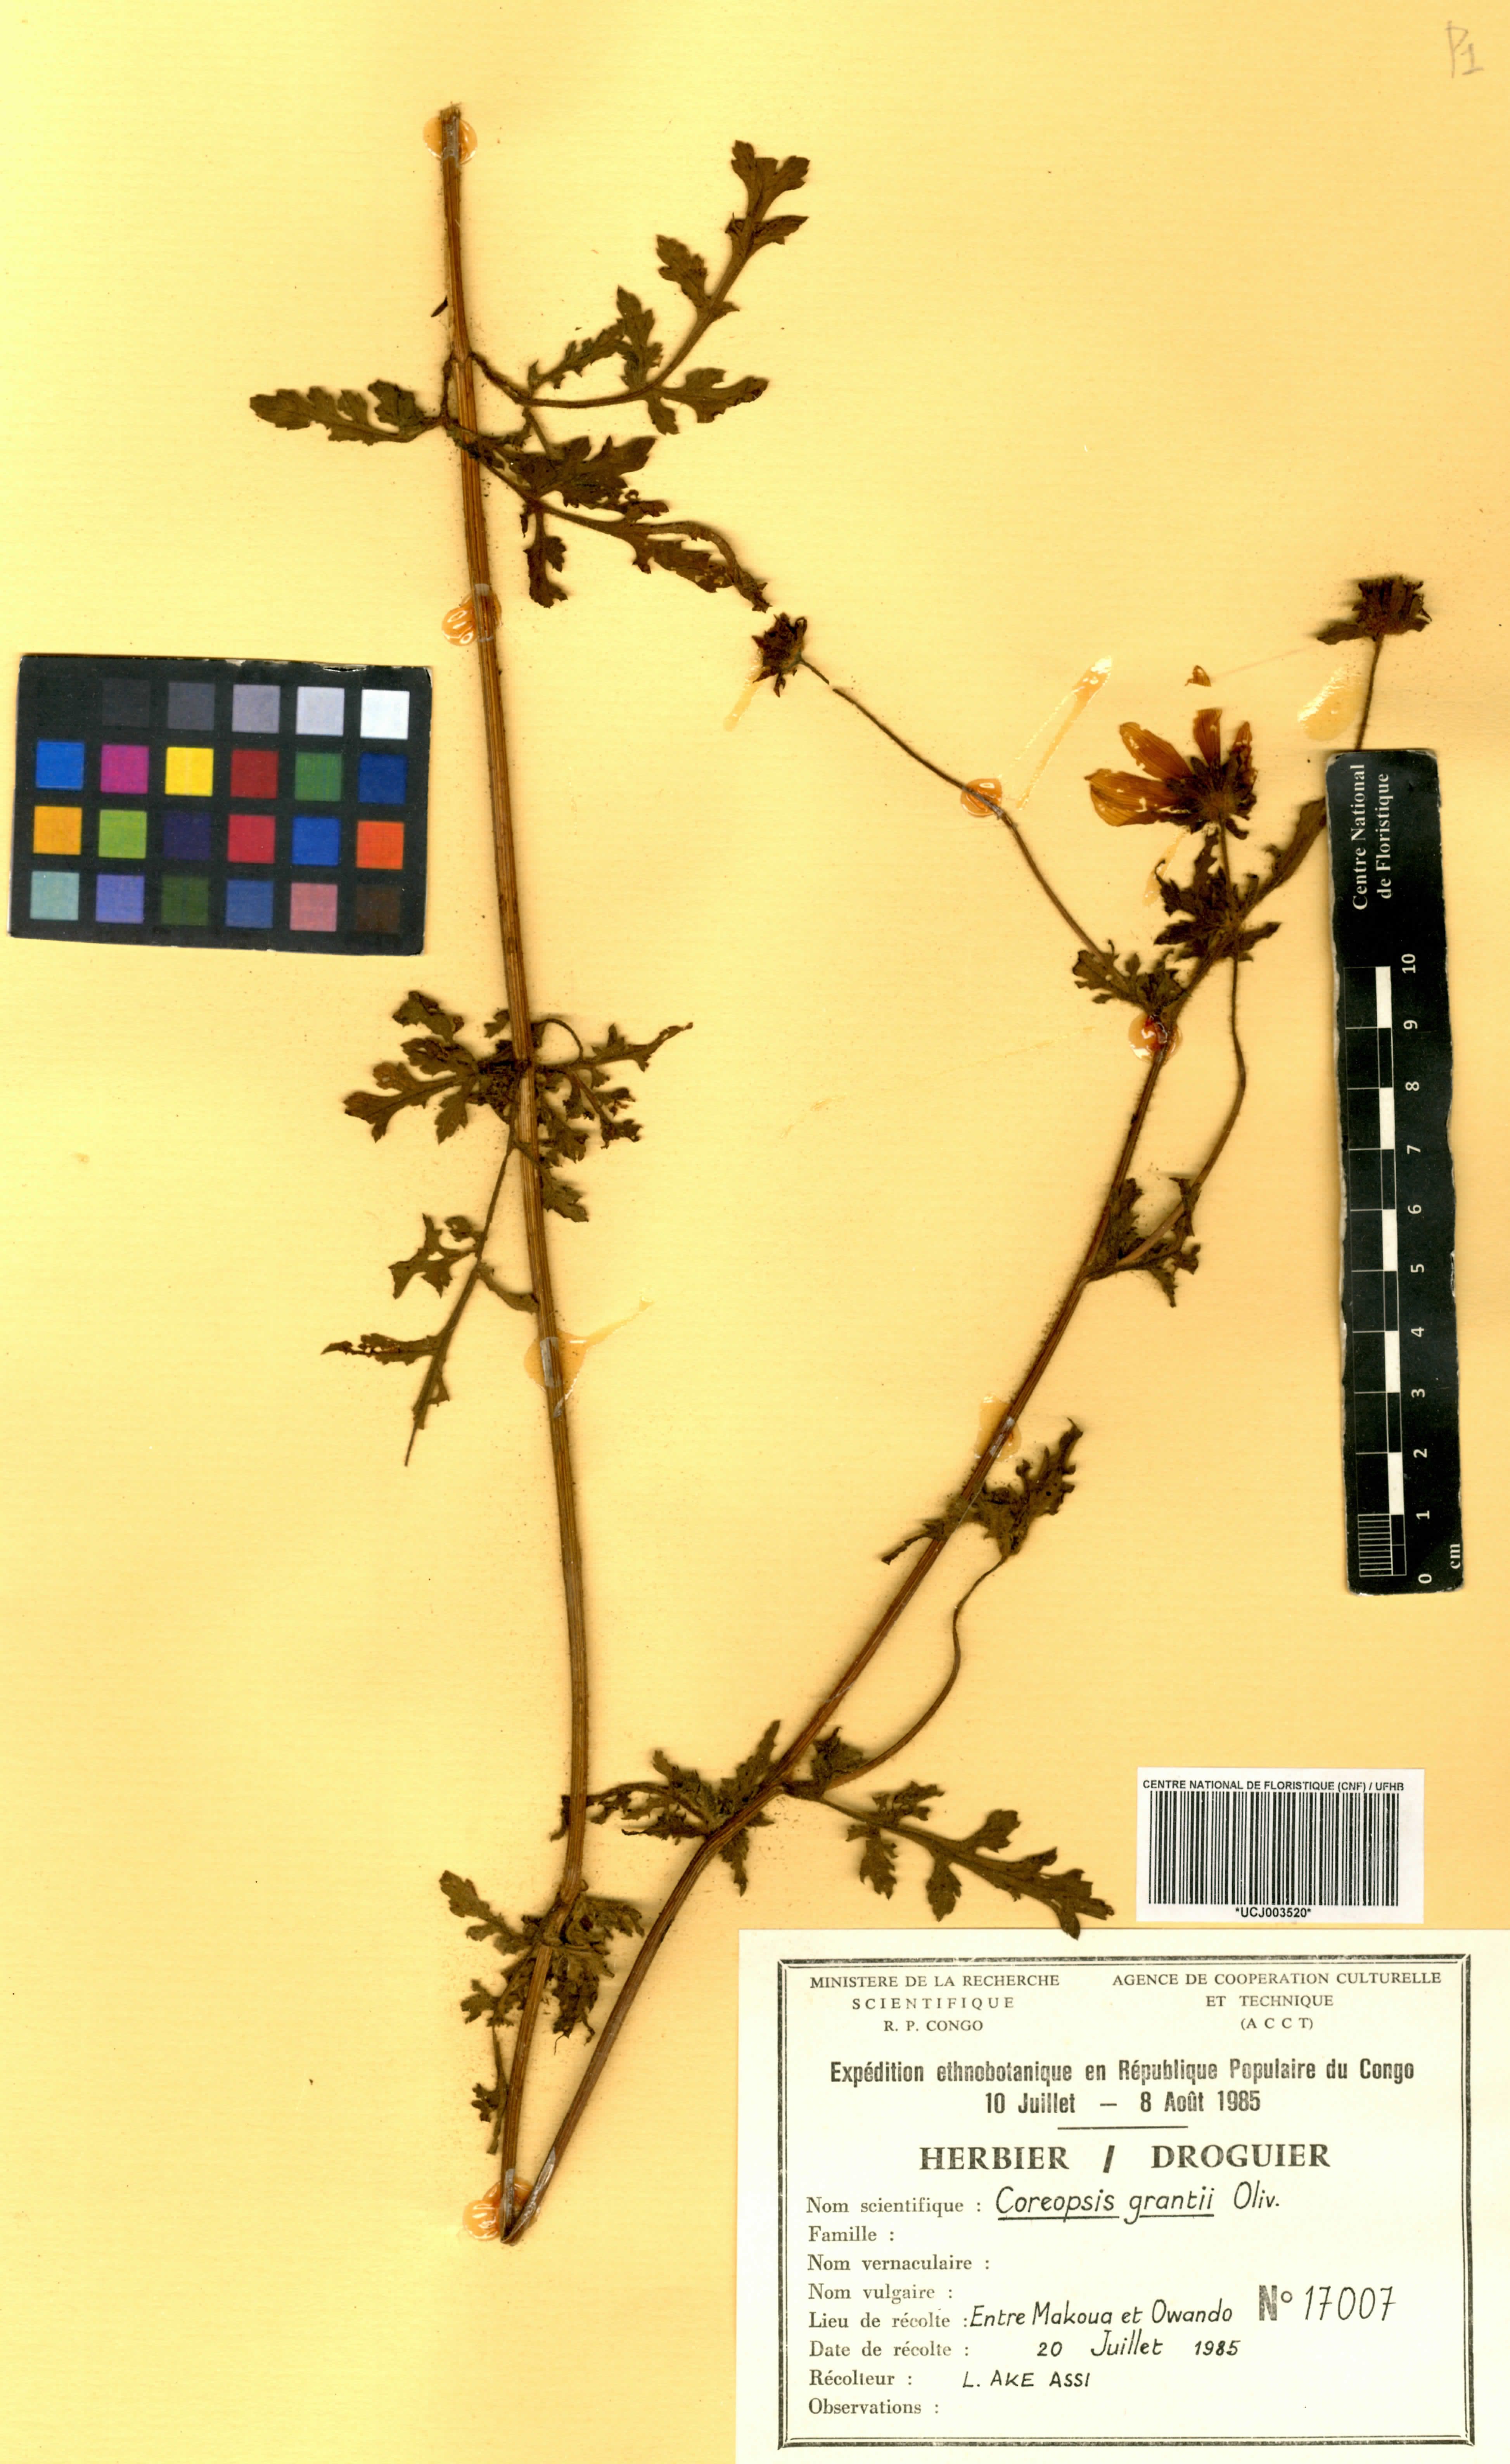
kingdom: Plantae
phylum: Tracheophyta
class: Magnoliopsida
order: Asterales
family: Asteraceae
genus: Bidens
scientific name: Bidens grantii
